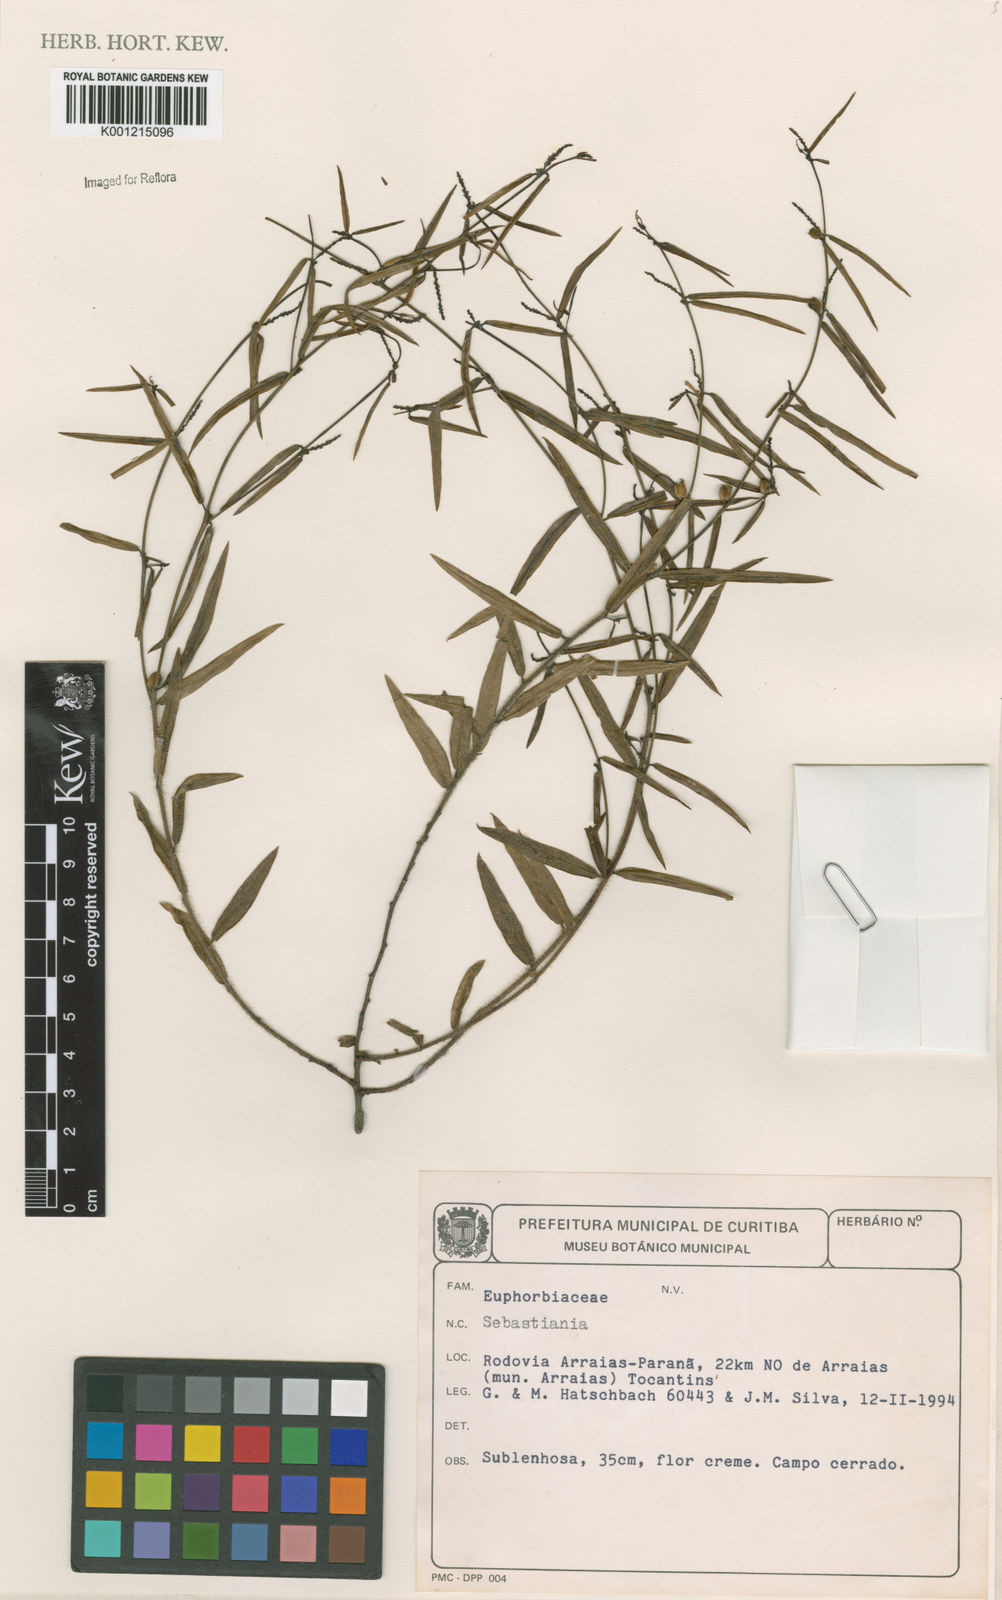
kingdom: Plantae
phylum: Tracheophyta
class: Magnoliopsida
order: Malpighiales
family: Euphorbiaceae
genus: Sebastiania
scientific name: Sebastiania
